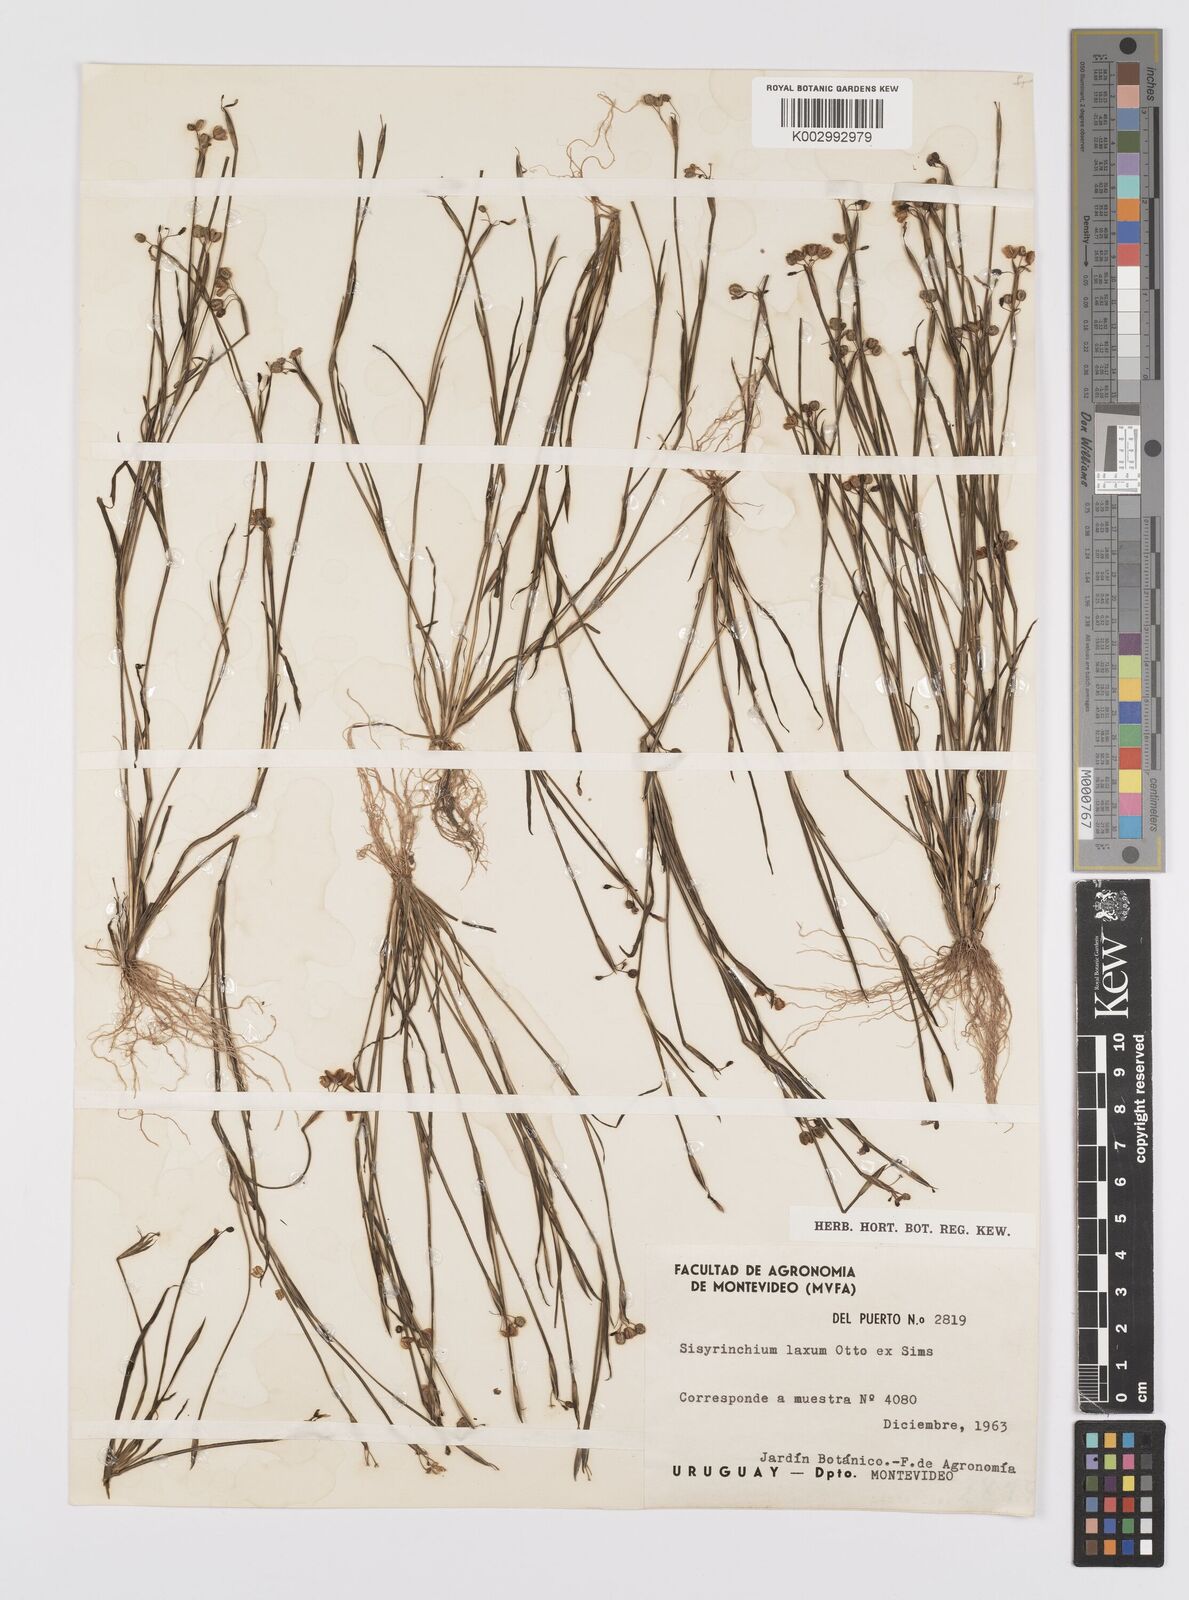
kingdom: Plantae
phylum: Tracheophyta
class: Liliopsida
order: Asparagales
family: Iridaceae
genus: Sisyrinchium
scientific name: Sisyrinchium laxum
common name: Veined yellow-eyed-grass
